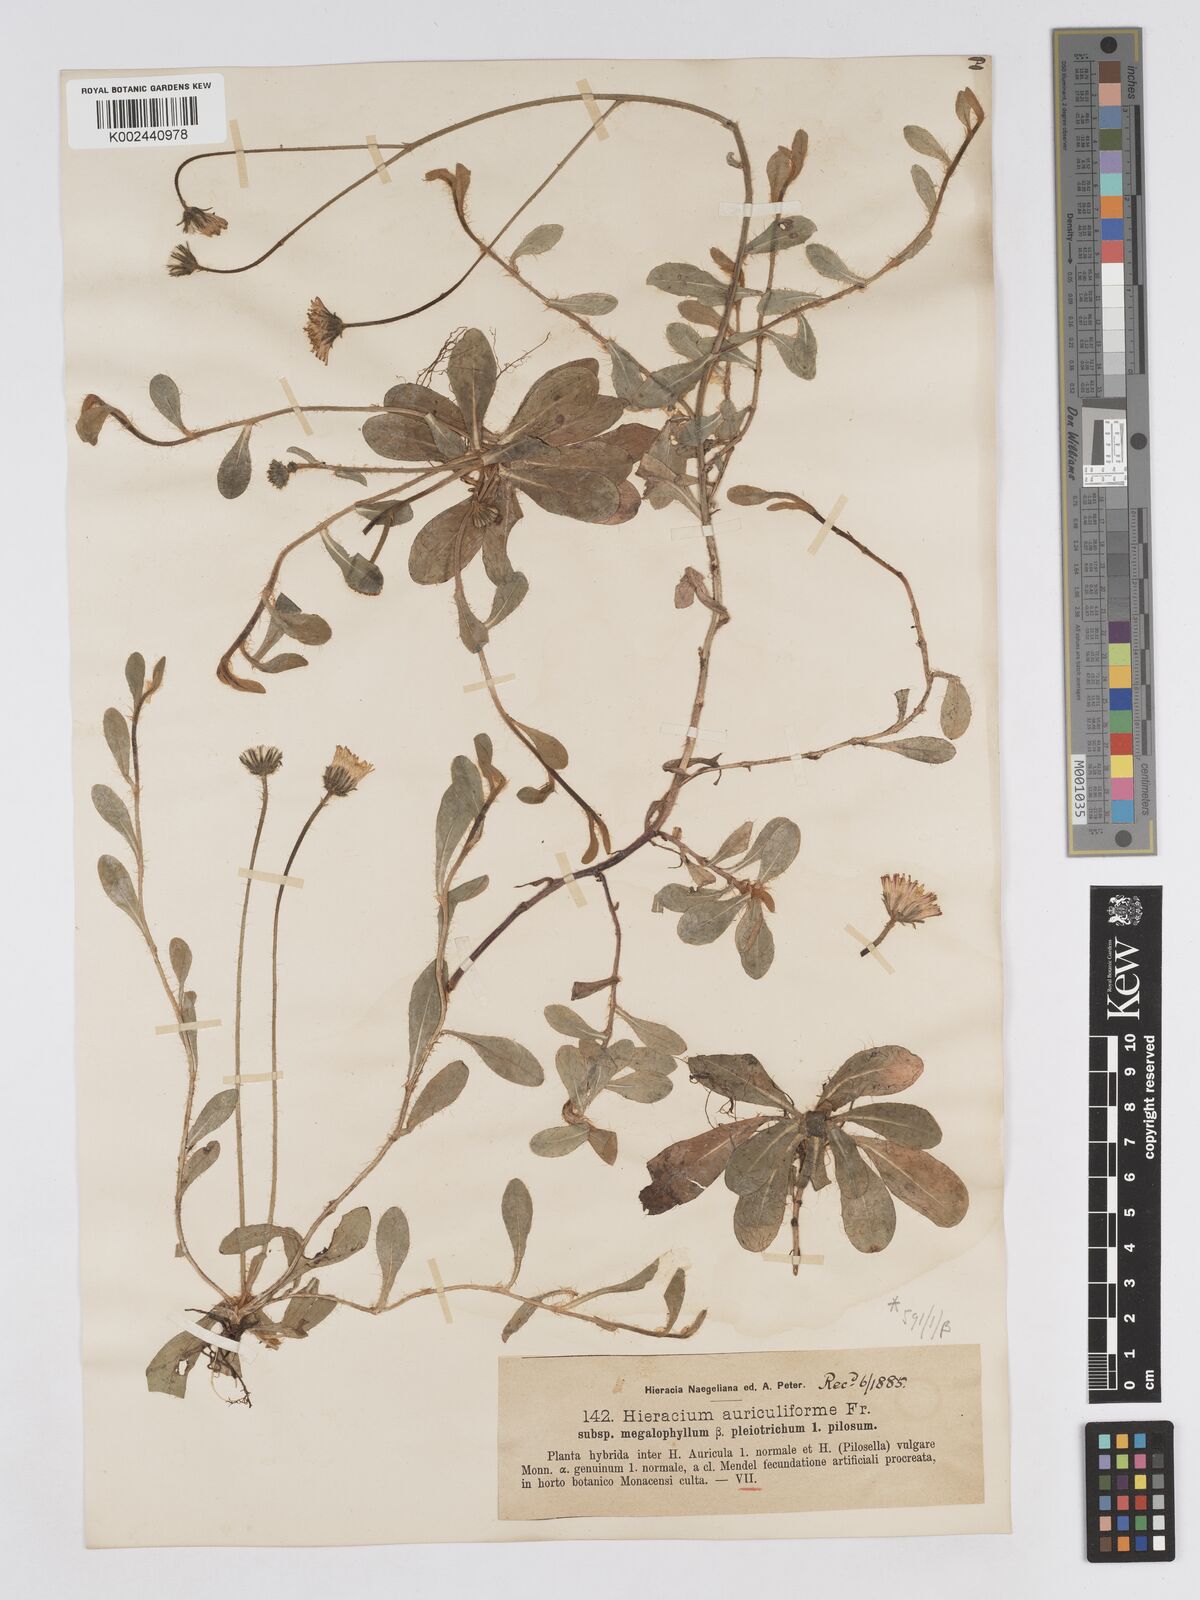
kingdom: Plantae
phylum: Tracheophyta
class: Magnoliopsida
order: Asterales
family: Asteraceae
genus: Pilosella
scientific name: Pilosella schultesii
